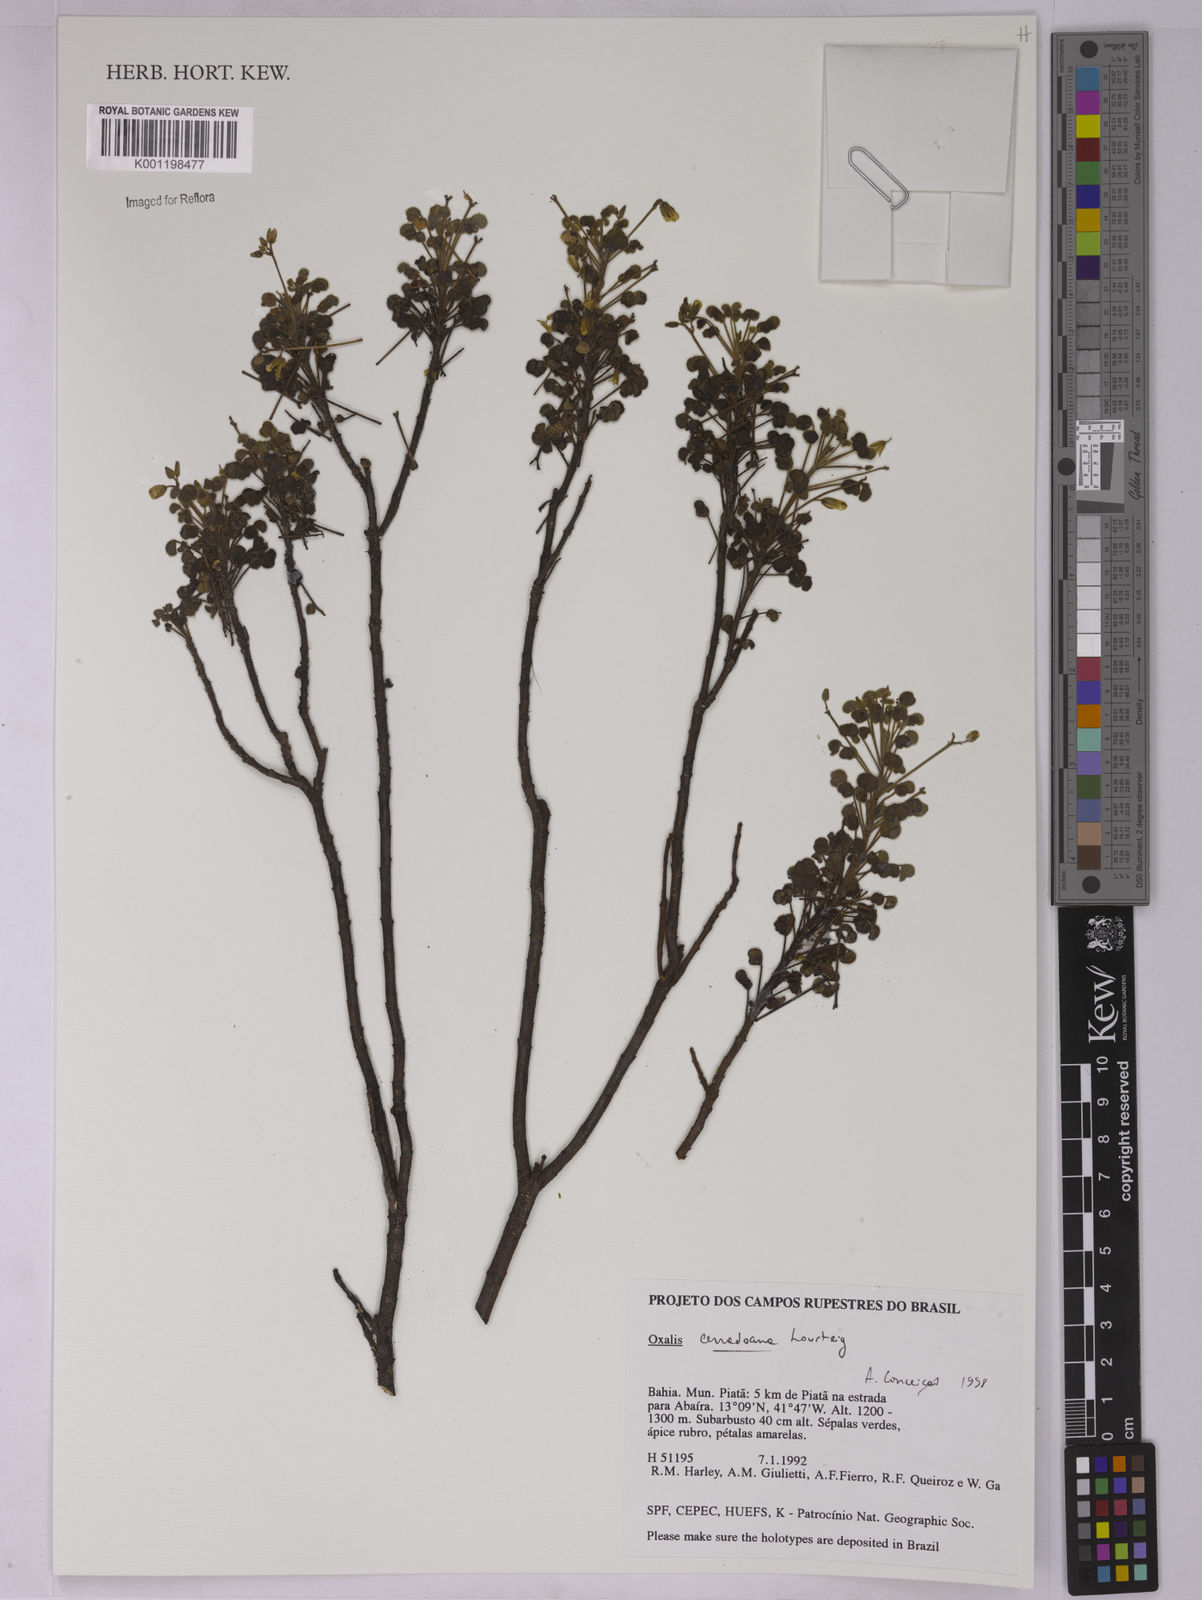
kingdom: Plantae
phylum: Tracheophyta
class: Magnoliopsida
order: Oxalidales
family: Oxalidaceae
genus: Oxalis
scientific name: Oxalis cerradoana
